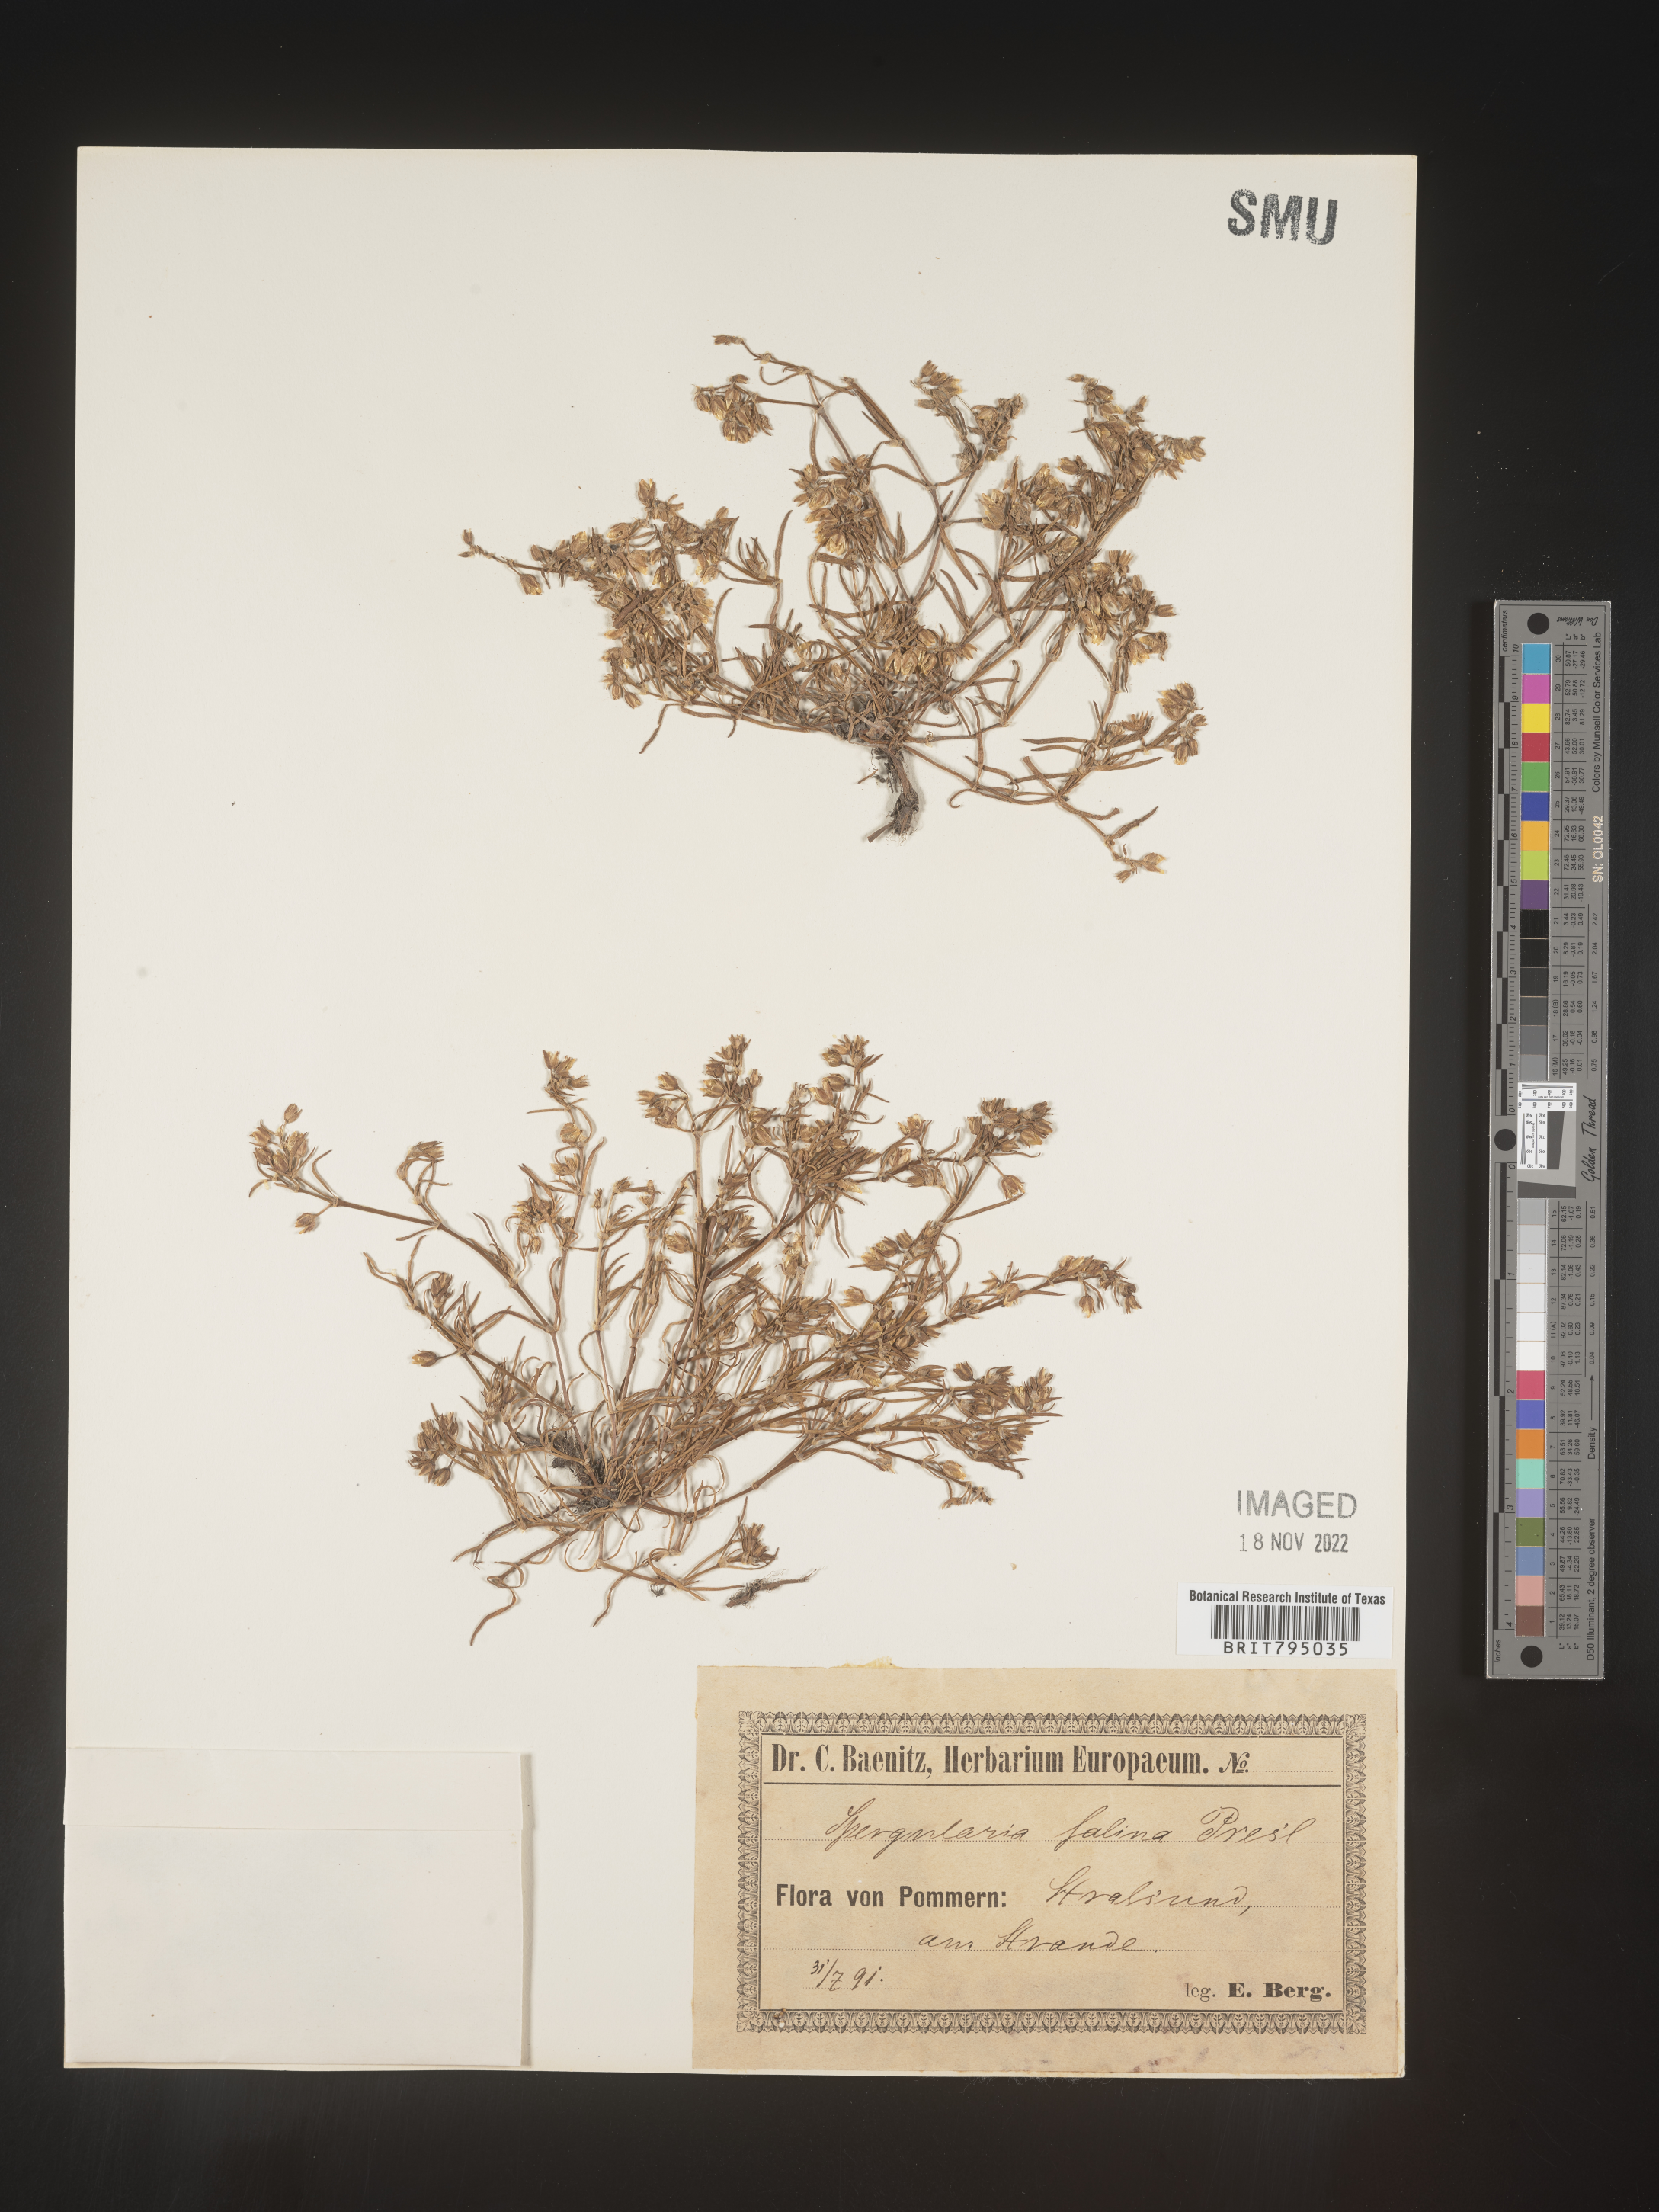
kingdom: Plantae
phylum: Tracheophyta
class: Magnoliopsida
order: Caryophyllales
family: Caryophyllaceae
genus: Spergularia
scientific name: Spergularia marina
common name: Lesser sea-spurrey
